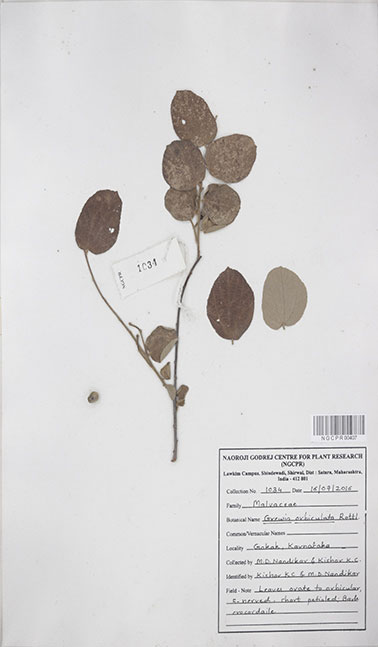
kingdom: Plantae
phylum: Tracheophyta
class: Magnoliopsida
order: Malvales
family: Malvaceae
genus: Grewia
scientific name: Grewia orbiculata
